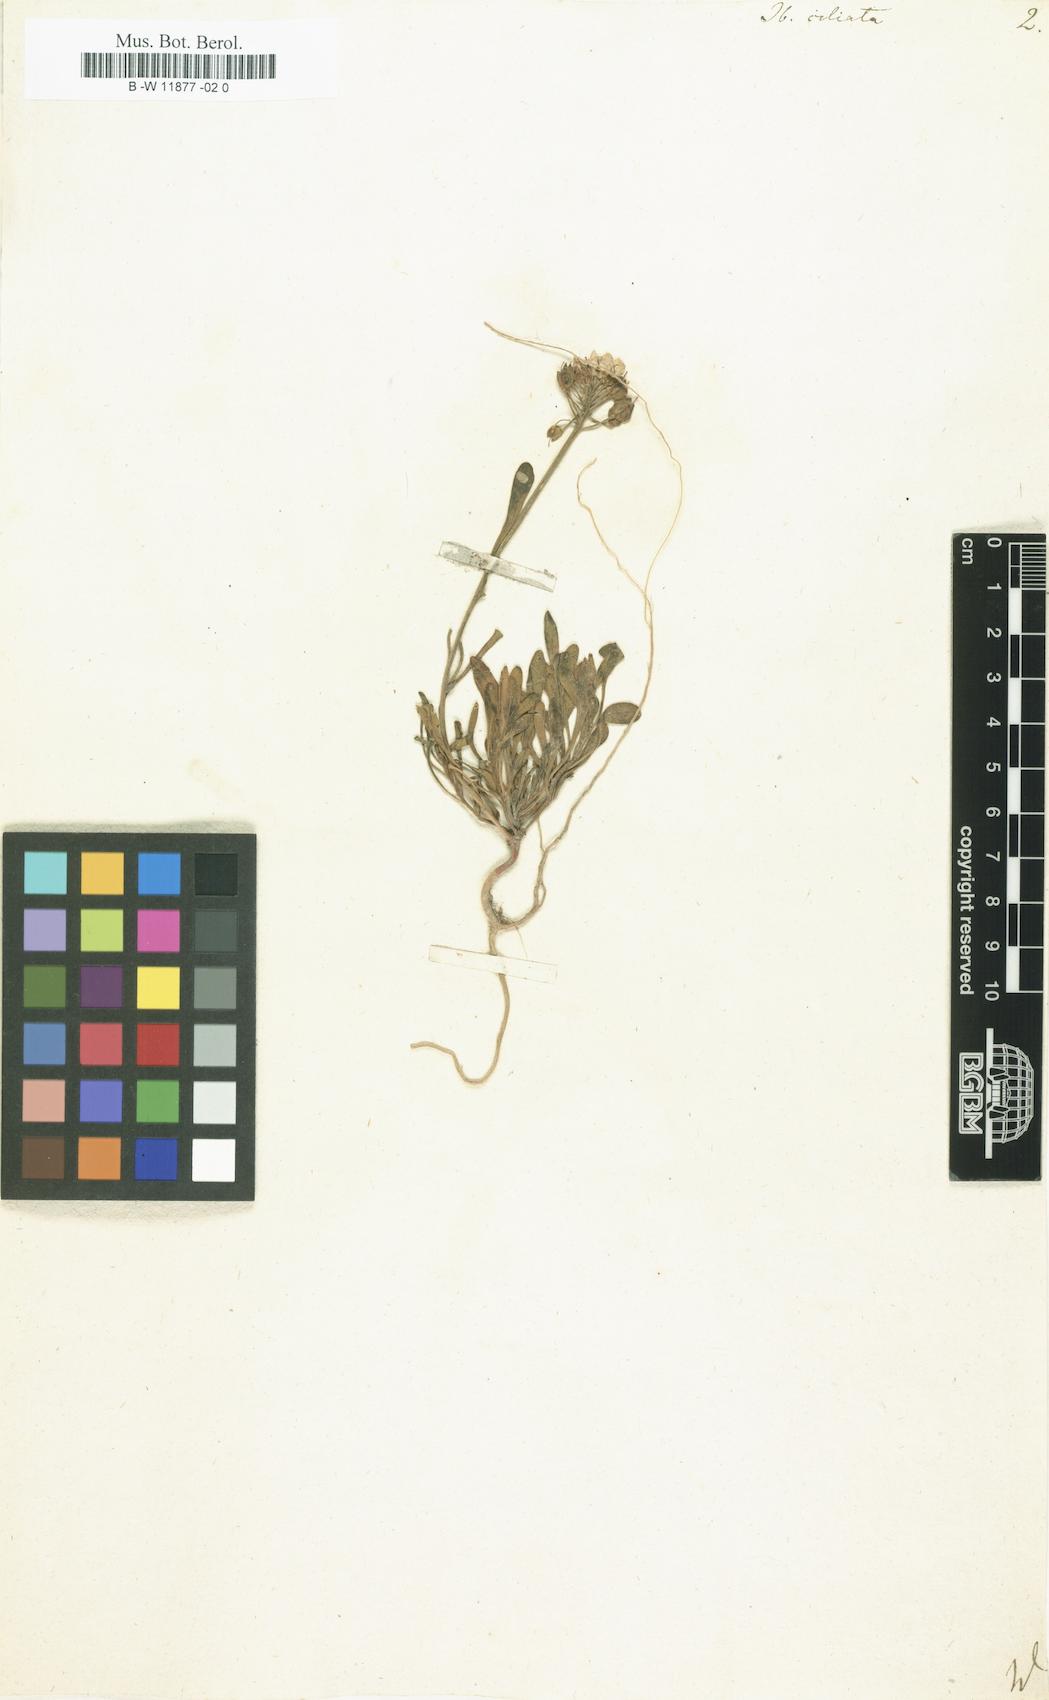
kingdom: Plantae
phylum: Tracheophyta
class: Magnoliopsida
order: Brassicales
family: Brassicaceae
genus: Iberis
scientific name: Iberis ciliata
